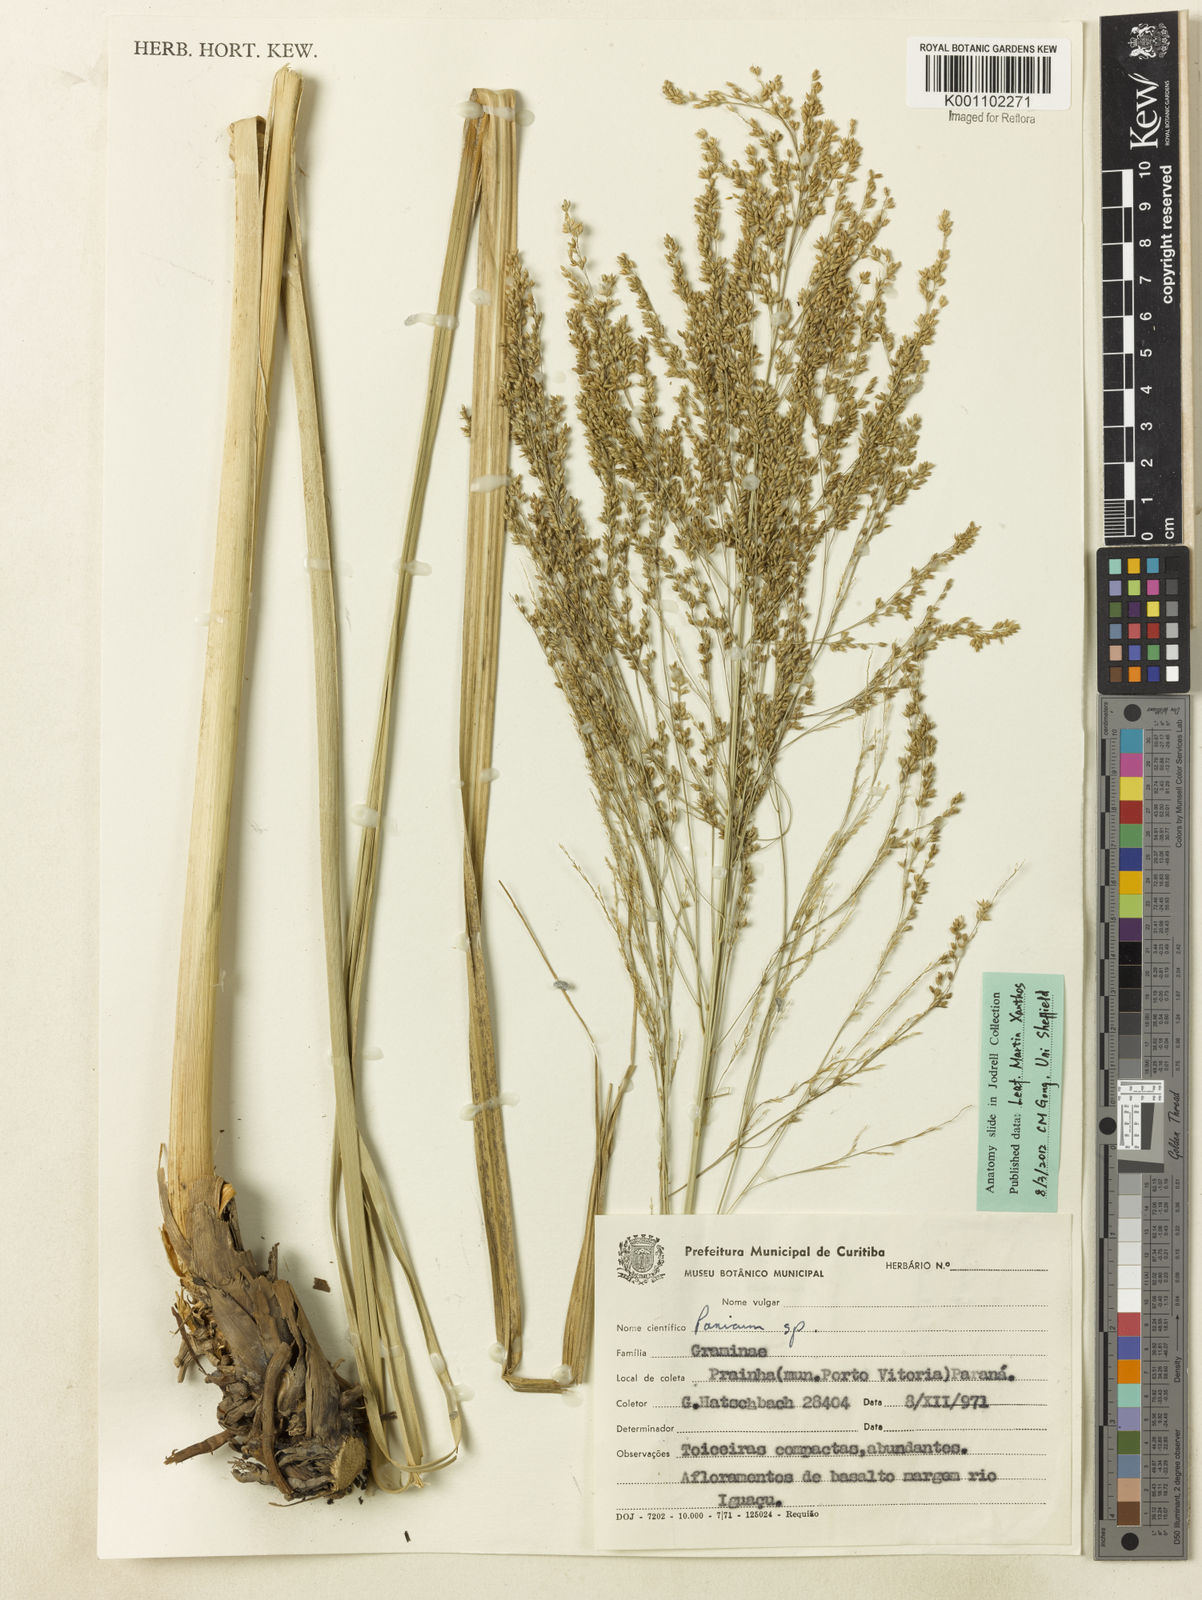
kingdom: Plantae
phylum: Tracheophyta
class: Liliopsida
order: Poales
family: Poaceae
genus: Coleataenia
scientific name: Coleataenia prionitis
